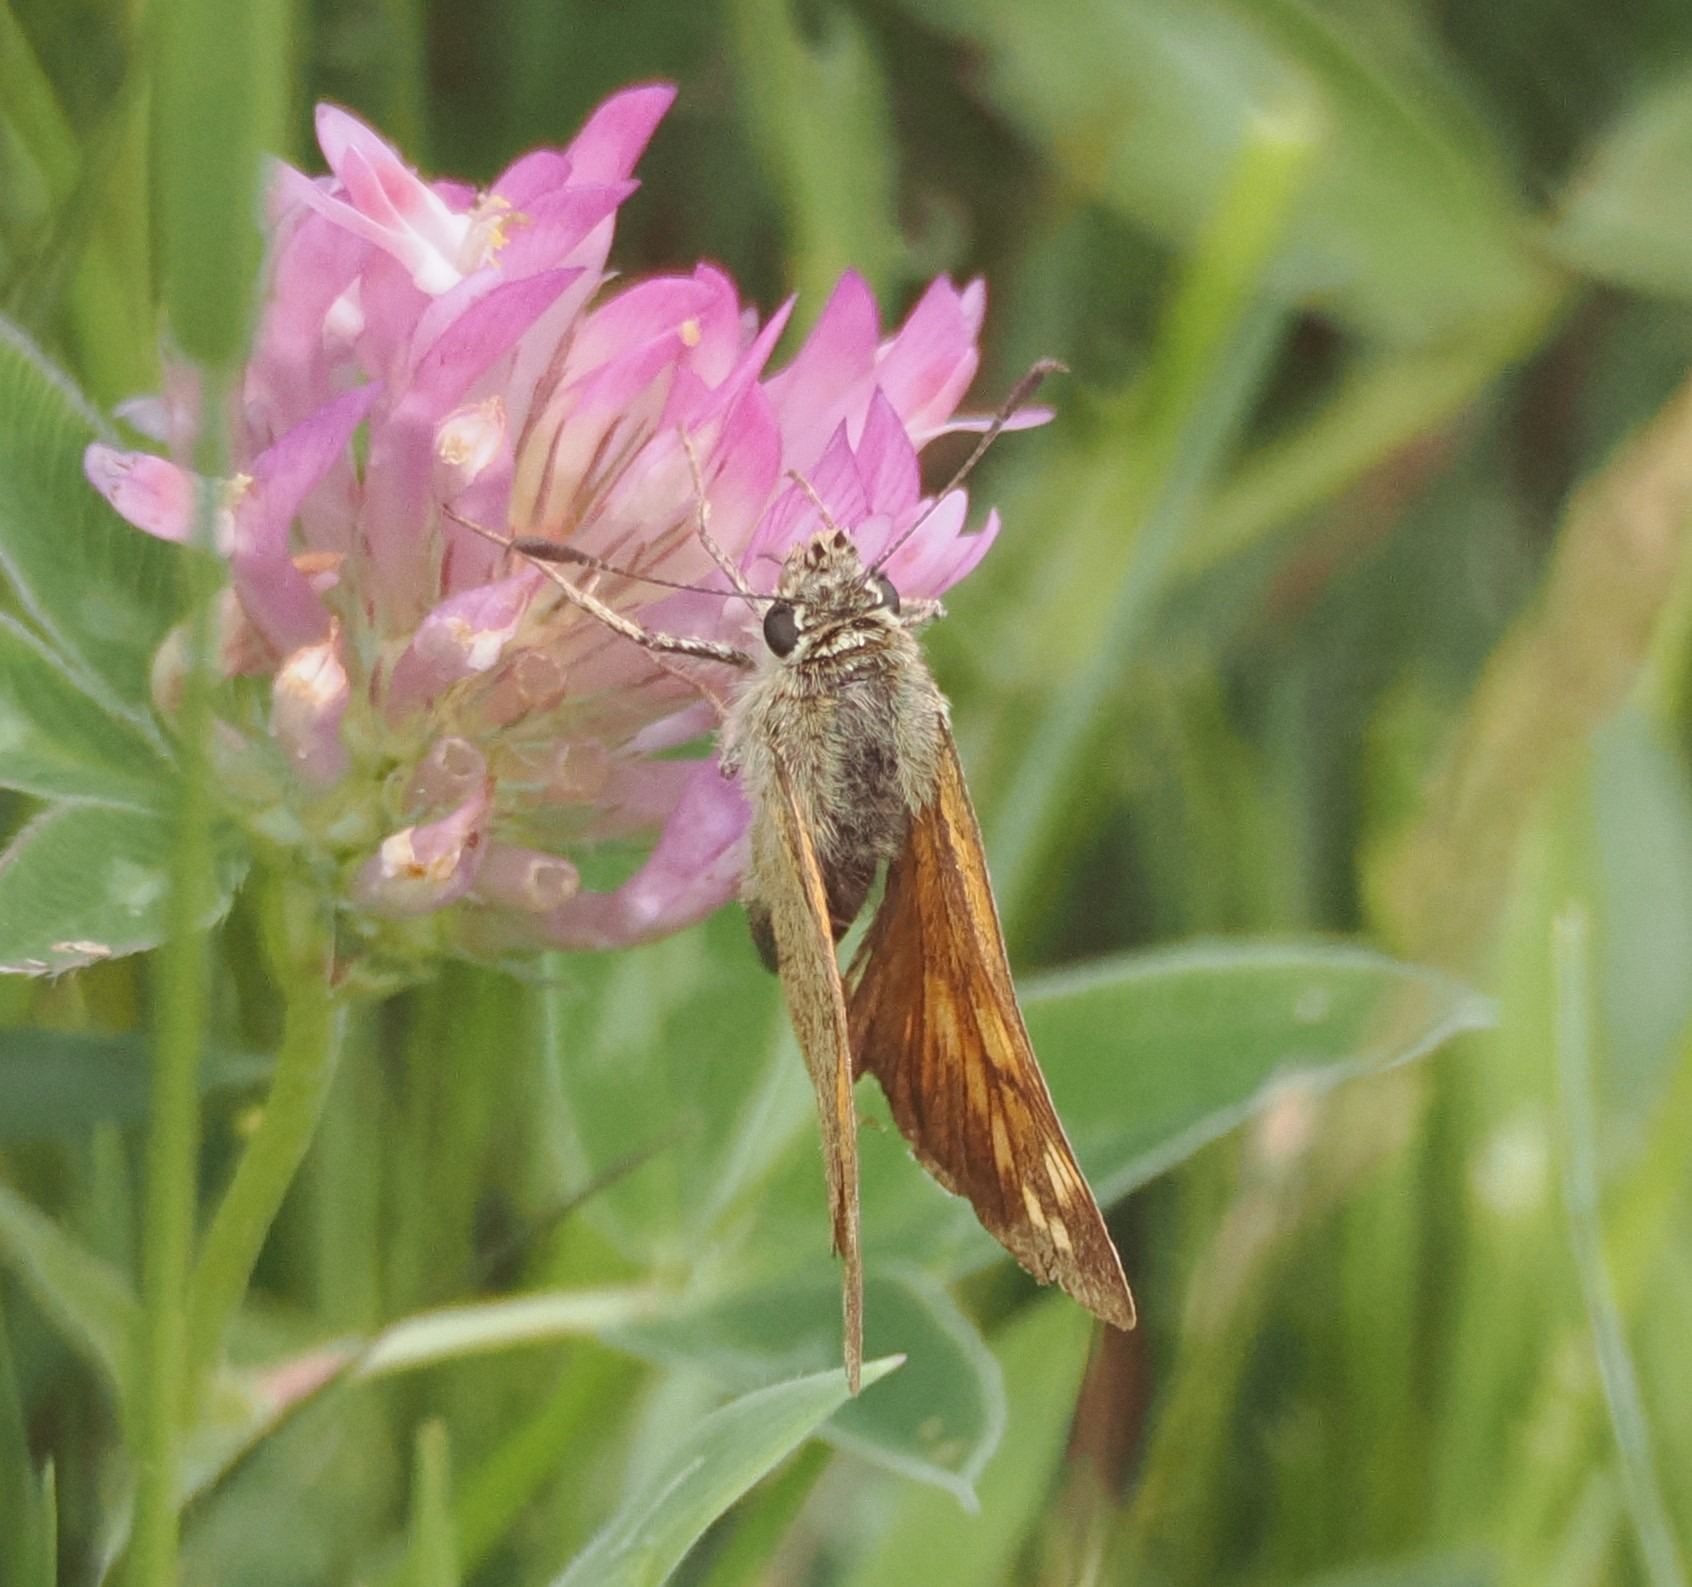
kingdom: Animalia
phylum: Arthropoda
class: Insecta
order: Lepidoptera
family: Hesperiidae
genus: Ochlodes
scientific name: Ochlodes venata
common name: Stor bredpande
